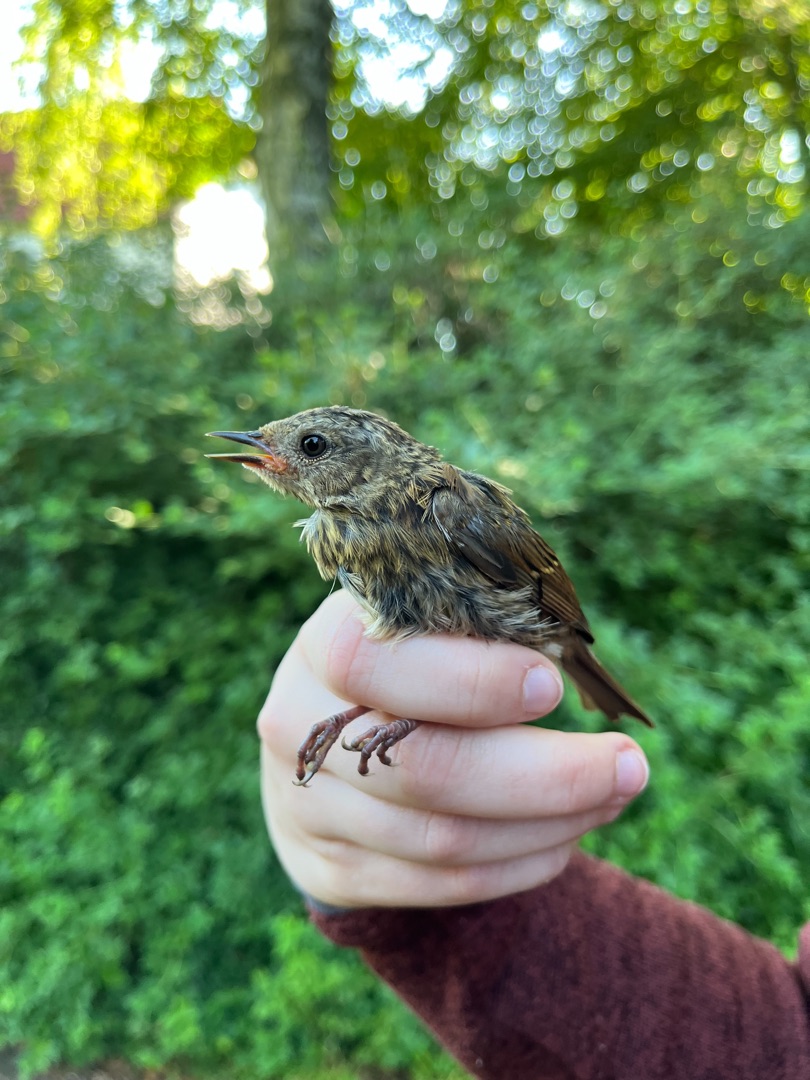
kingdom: Animalia
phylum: Chordata
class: Aves
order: Passeriformes
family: Prunellidae
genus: Prunella
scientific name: Prunella modularis
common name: Jernspurv
